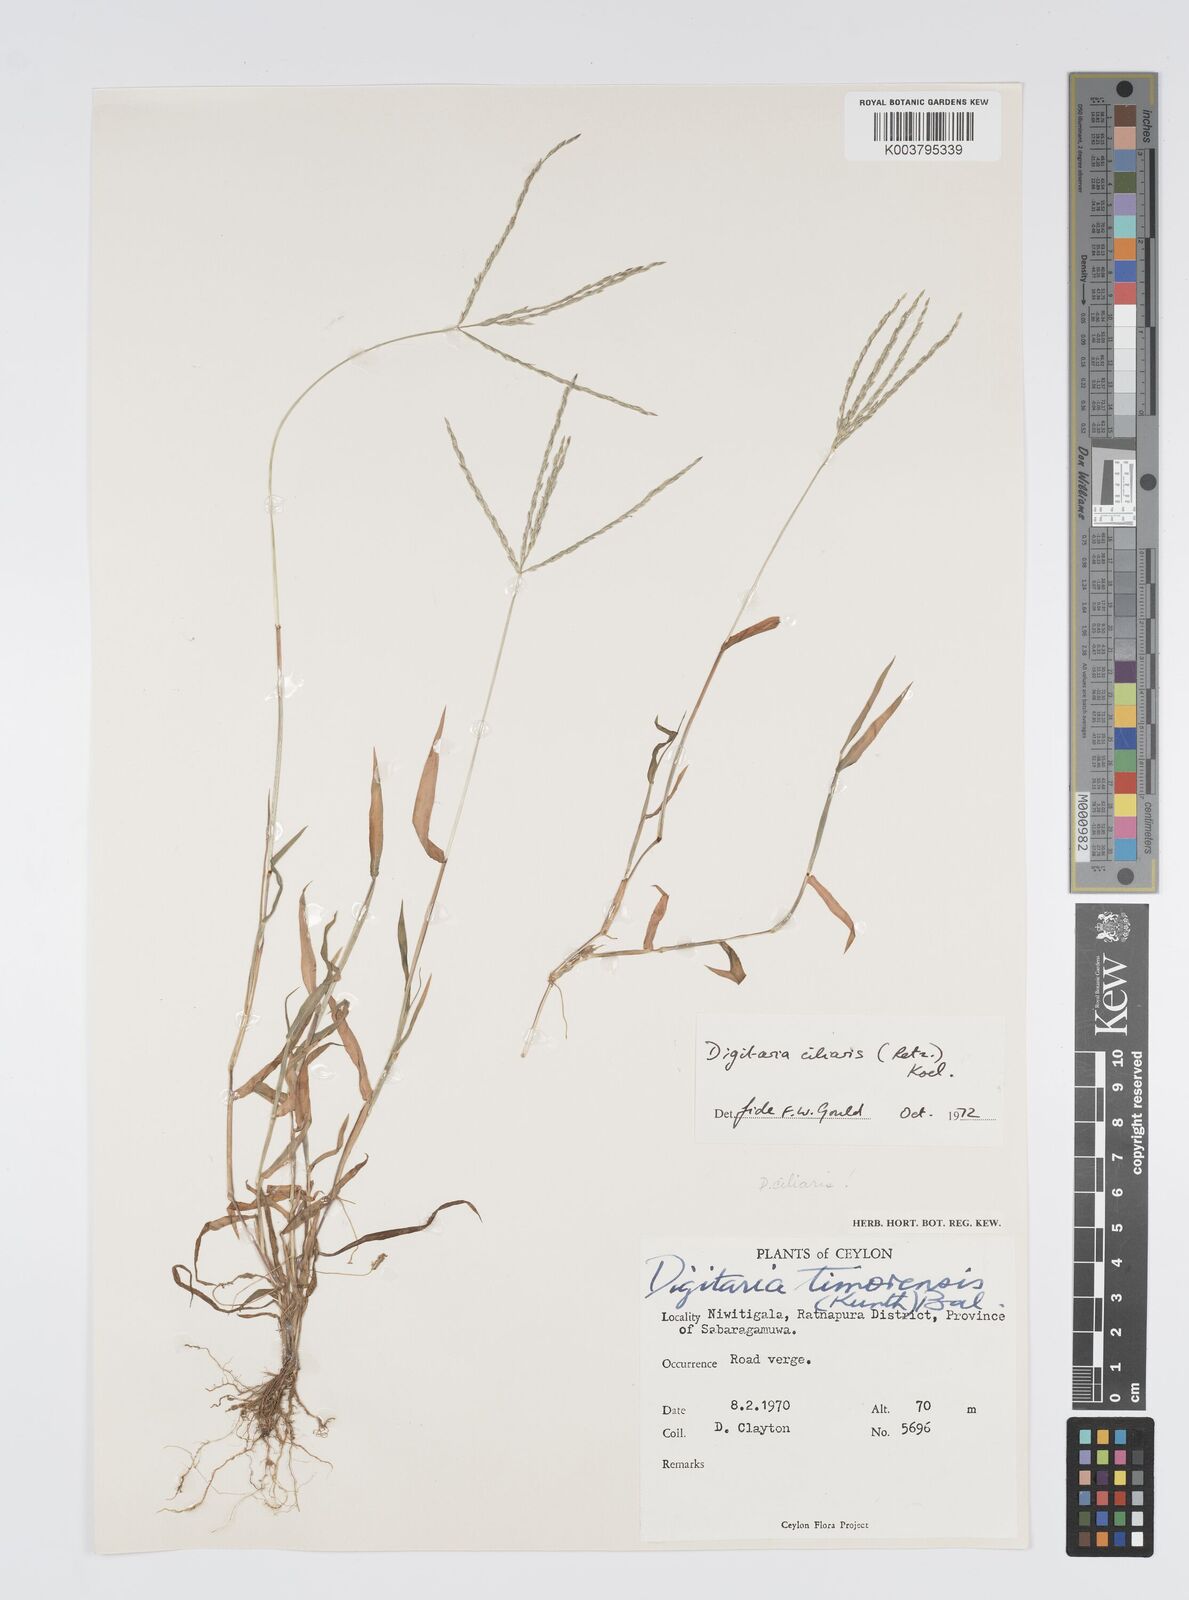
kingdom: Plantae
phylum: Tracheophyta
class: Liliopsida
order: Poales
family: Poaceae
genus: Digitaria
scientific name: Digitaria ciliaris
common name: Tropical finger-grass
